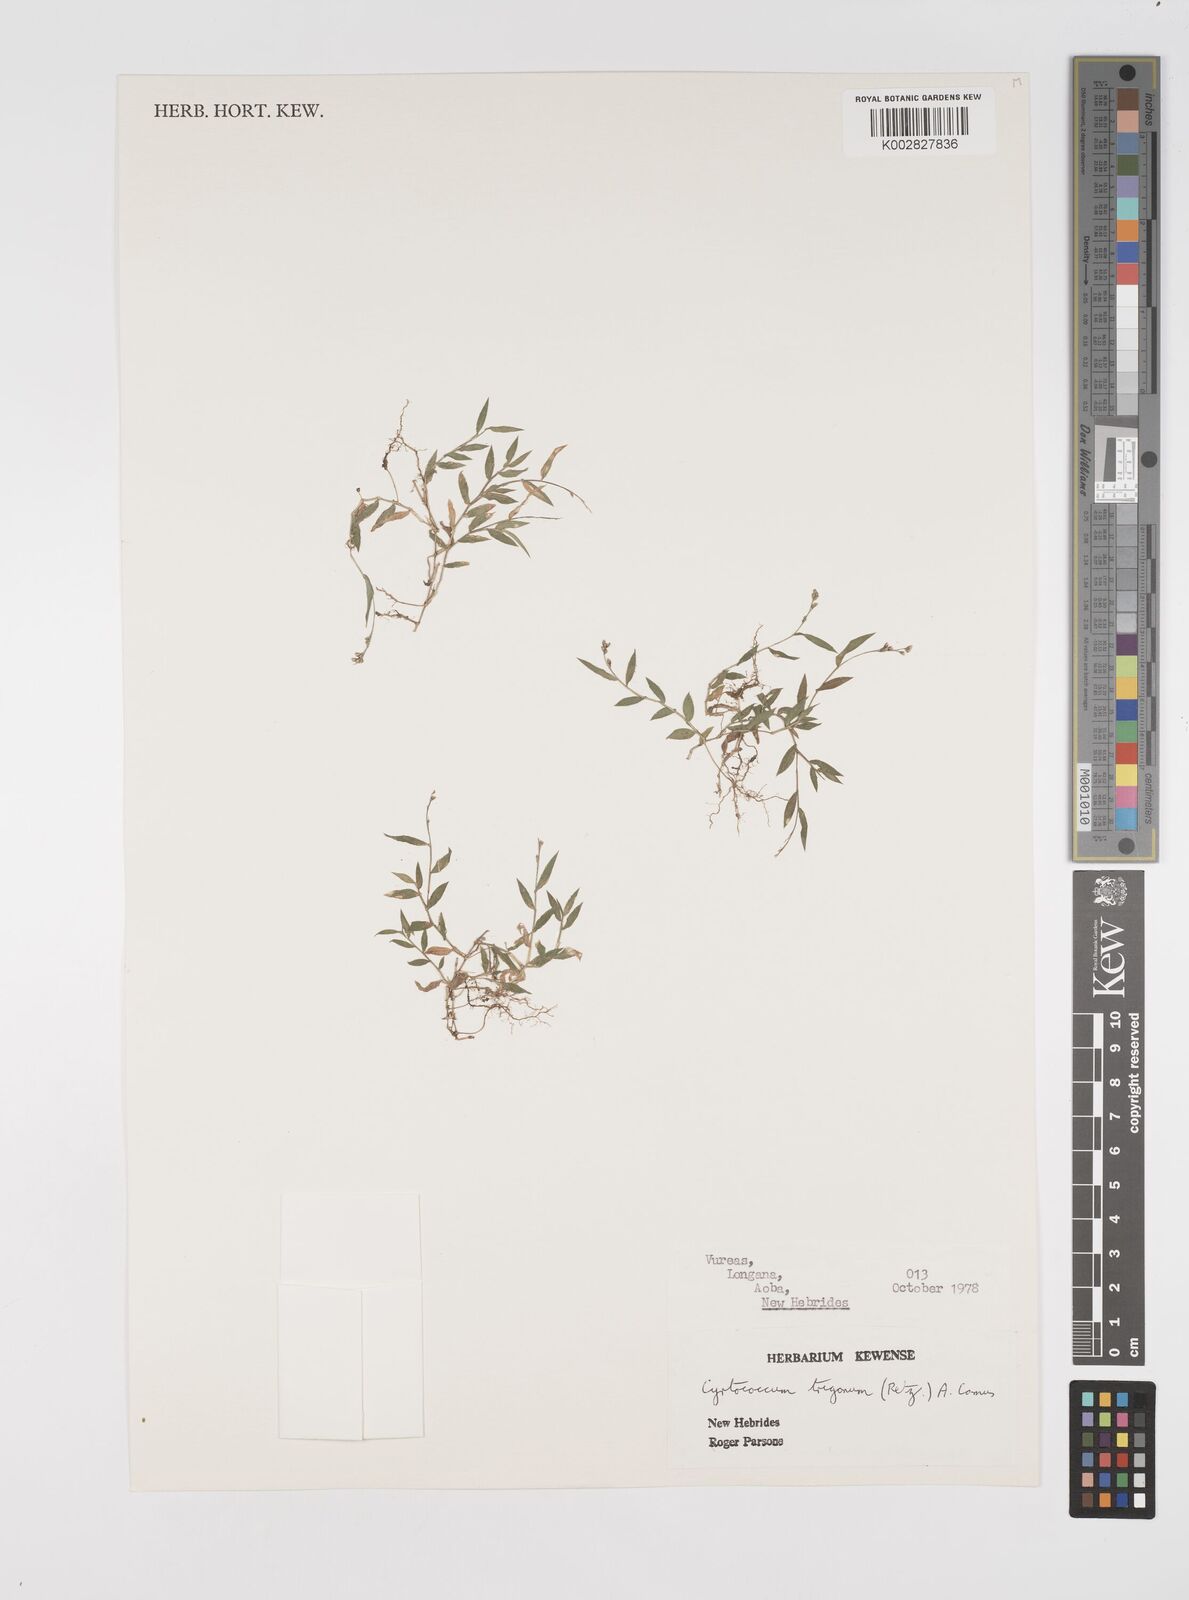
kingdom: Plantae
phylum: Tracheophyta
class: Liliopsida
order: Poales
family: Poaceae
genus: Cyrtococcum
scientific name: Cyrtococcum trigonum
